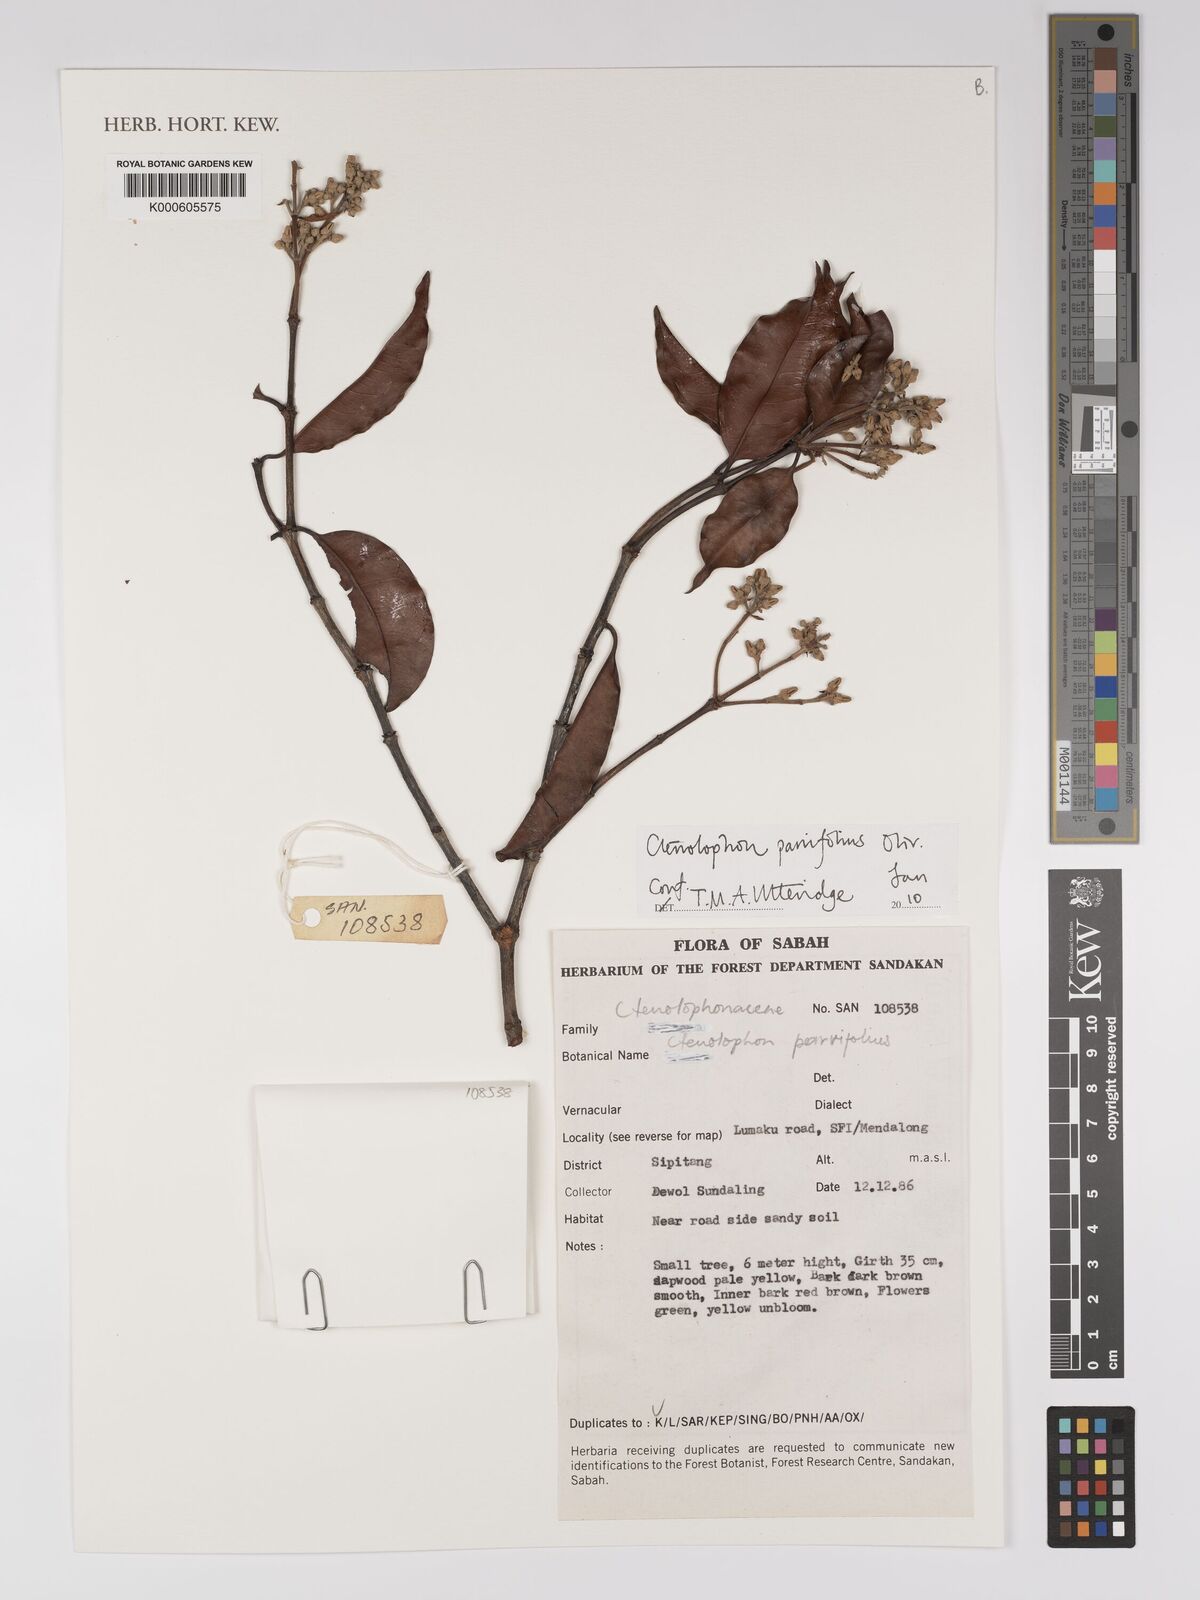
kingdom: Plantae
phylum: Tracheophyta
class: Magnoliopsida
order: Malpighiales
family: Ctenolophonaceae
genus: Ctenolophon
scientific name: Ctenolophon parvifolius
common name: Mertas
